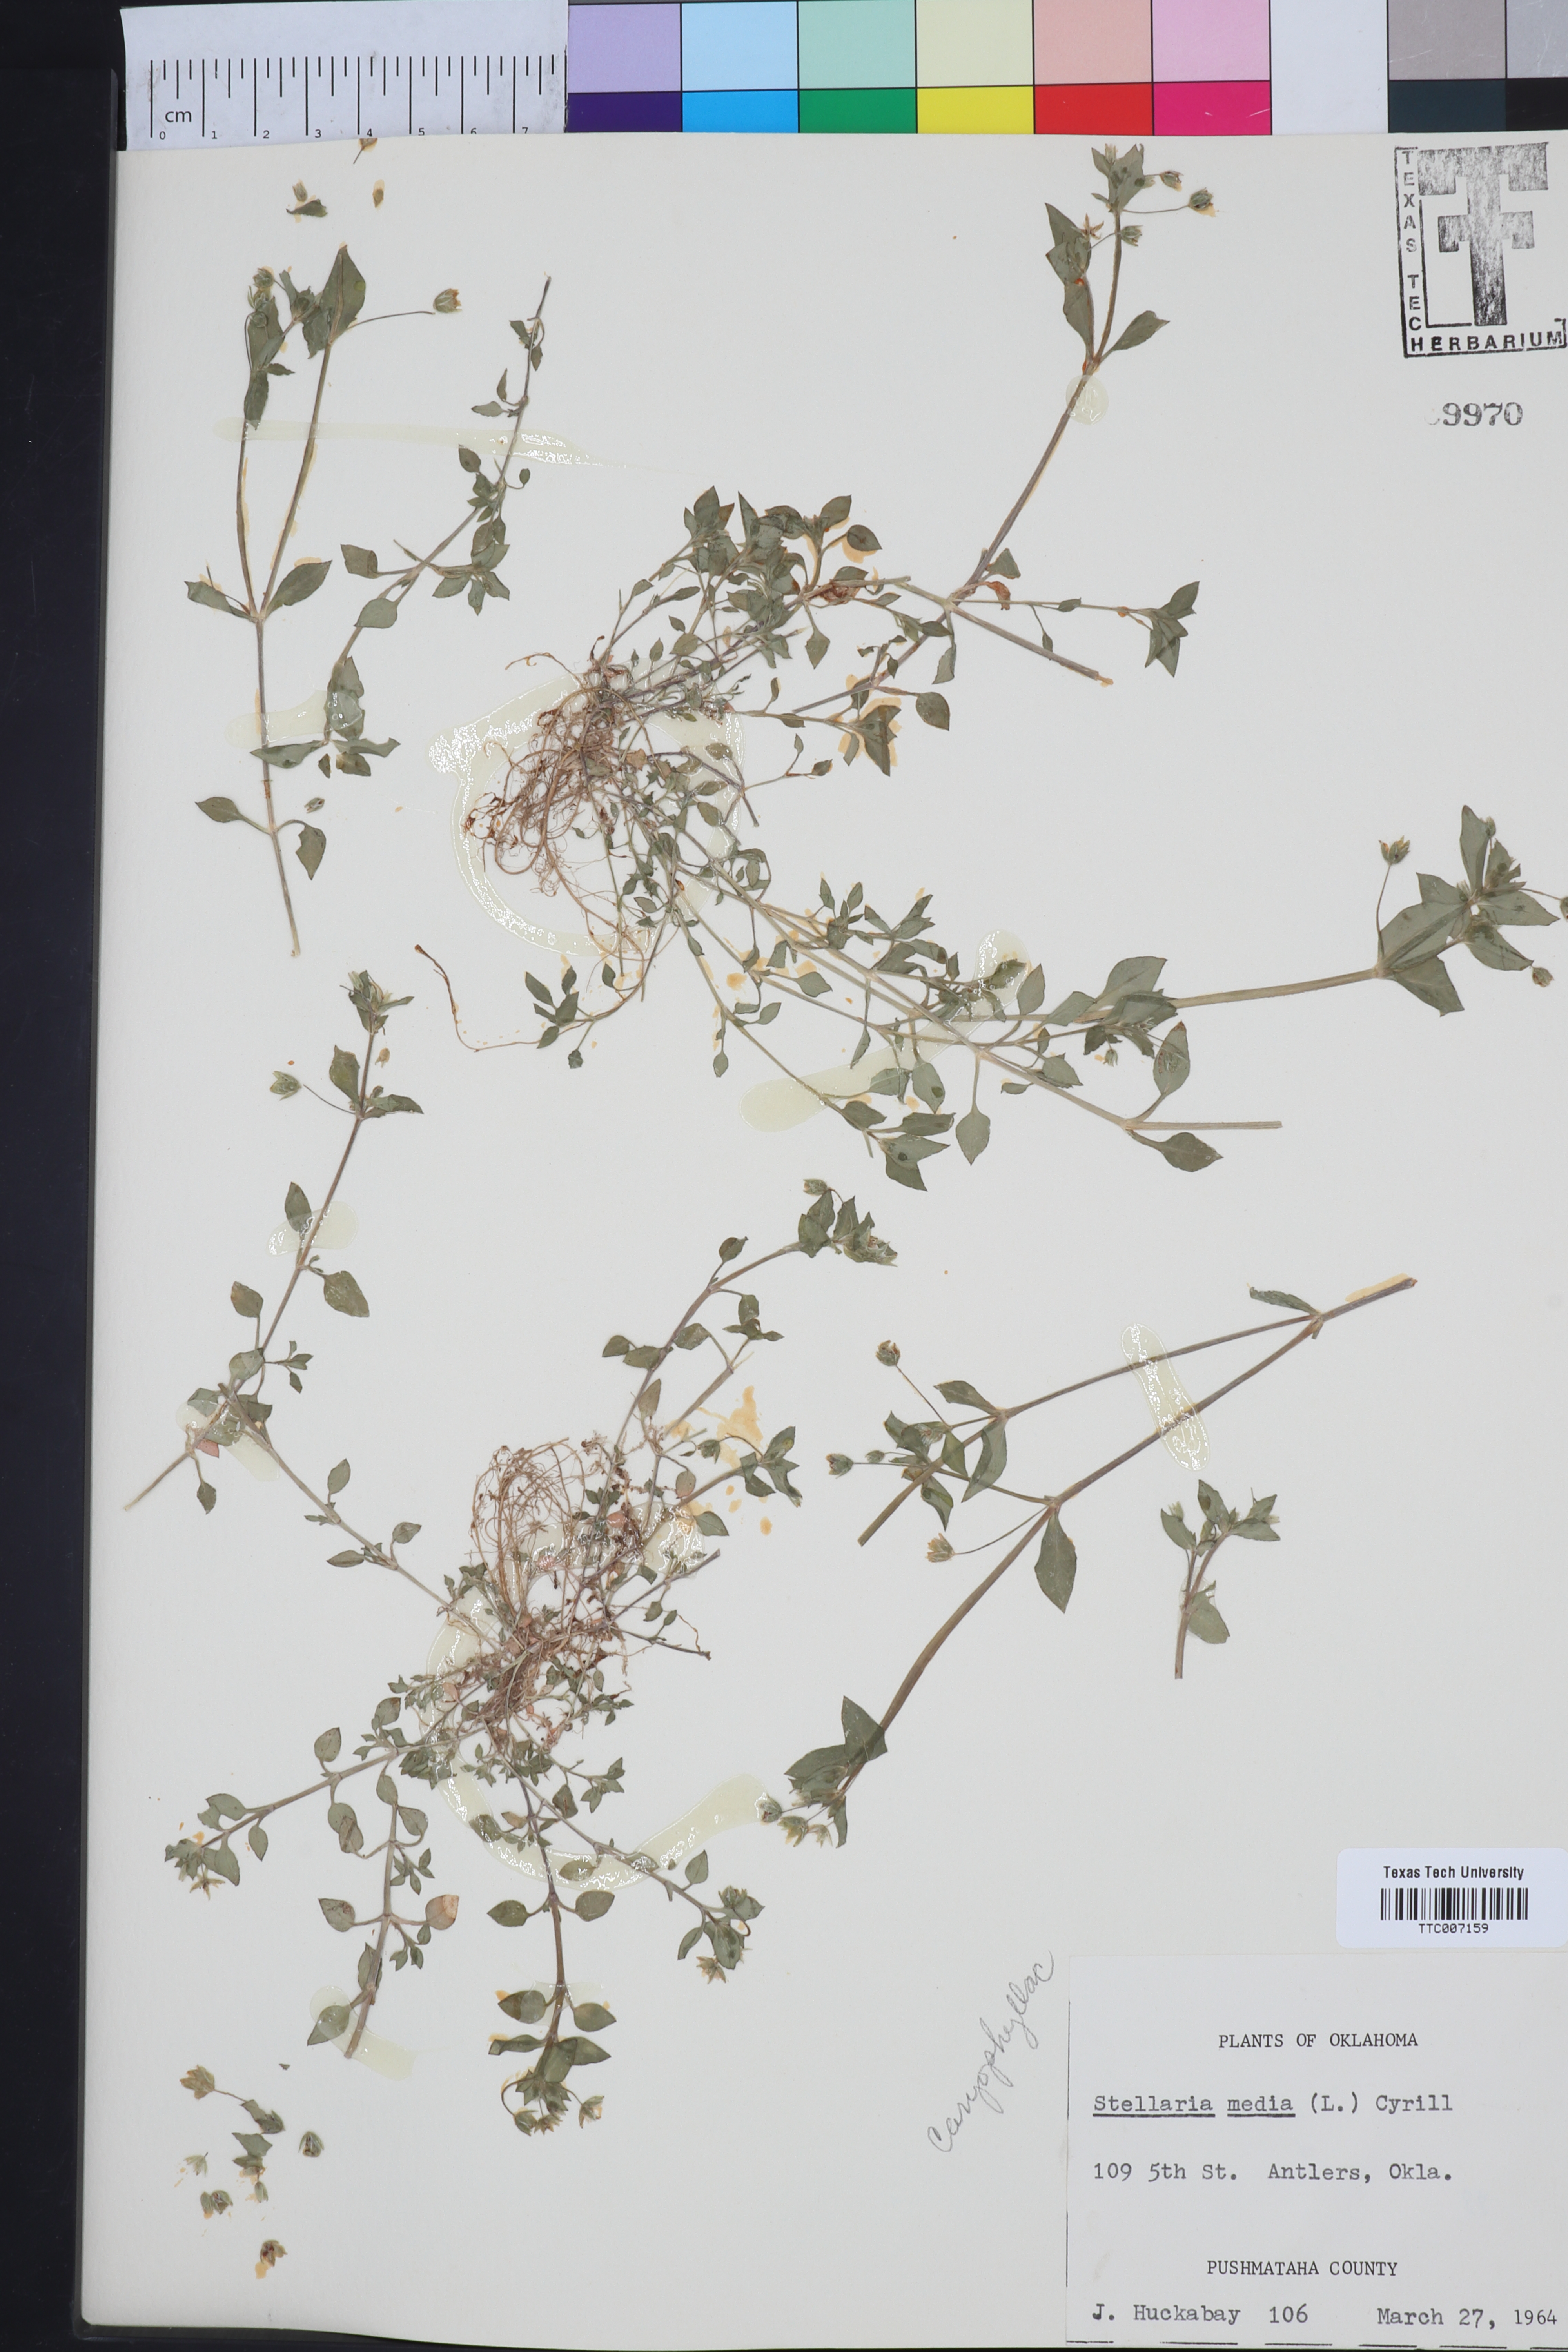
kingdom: Plantae
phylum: Tracheophyta
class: Magnoliopsida
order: Caryophyllales
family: Caryophyllaceae
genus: Stellaria
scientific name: Stellaria media
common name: Common chickweed
